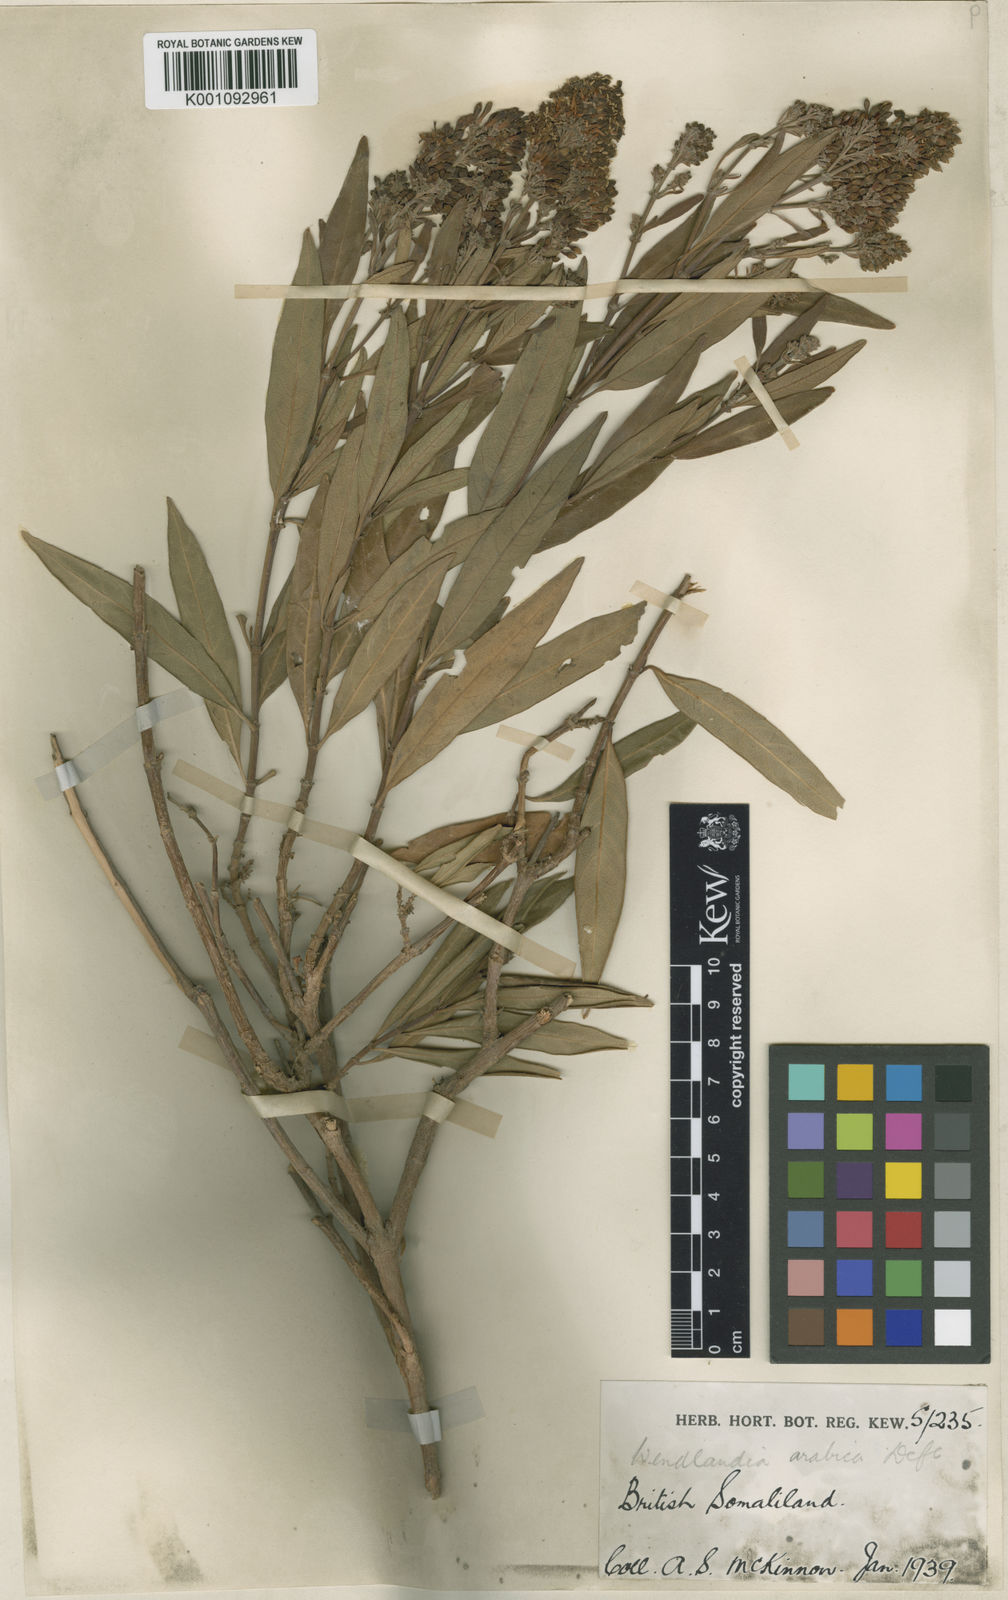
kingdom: Plantae
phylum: Tracheophyta
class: Magnoliopsida
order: Gentianales
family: Rubiaceae
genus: Wendlandia
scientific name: Wendlandia arabica
